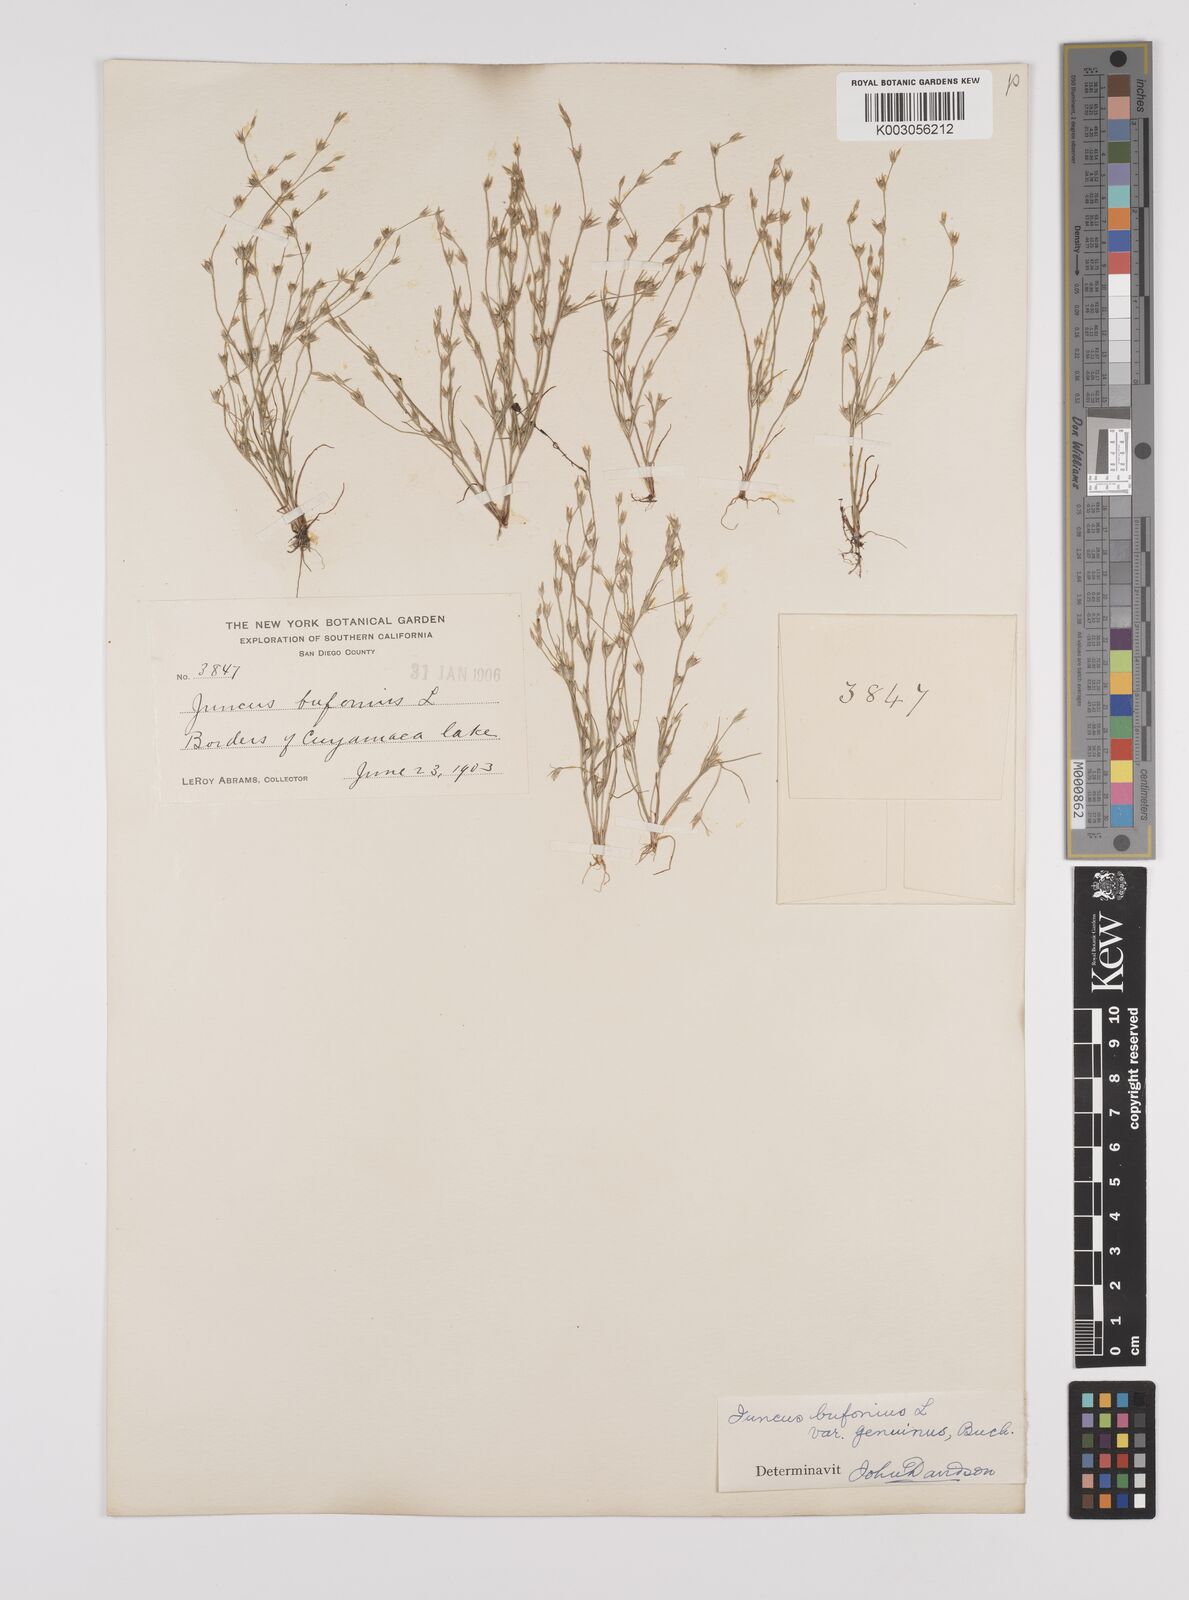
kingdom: Plantae
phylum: Tracheophyta
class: Liliopsida
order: Poales
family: Juncaceae
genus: Juncus
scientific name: Juncus bufonius
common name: Toad rush
